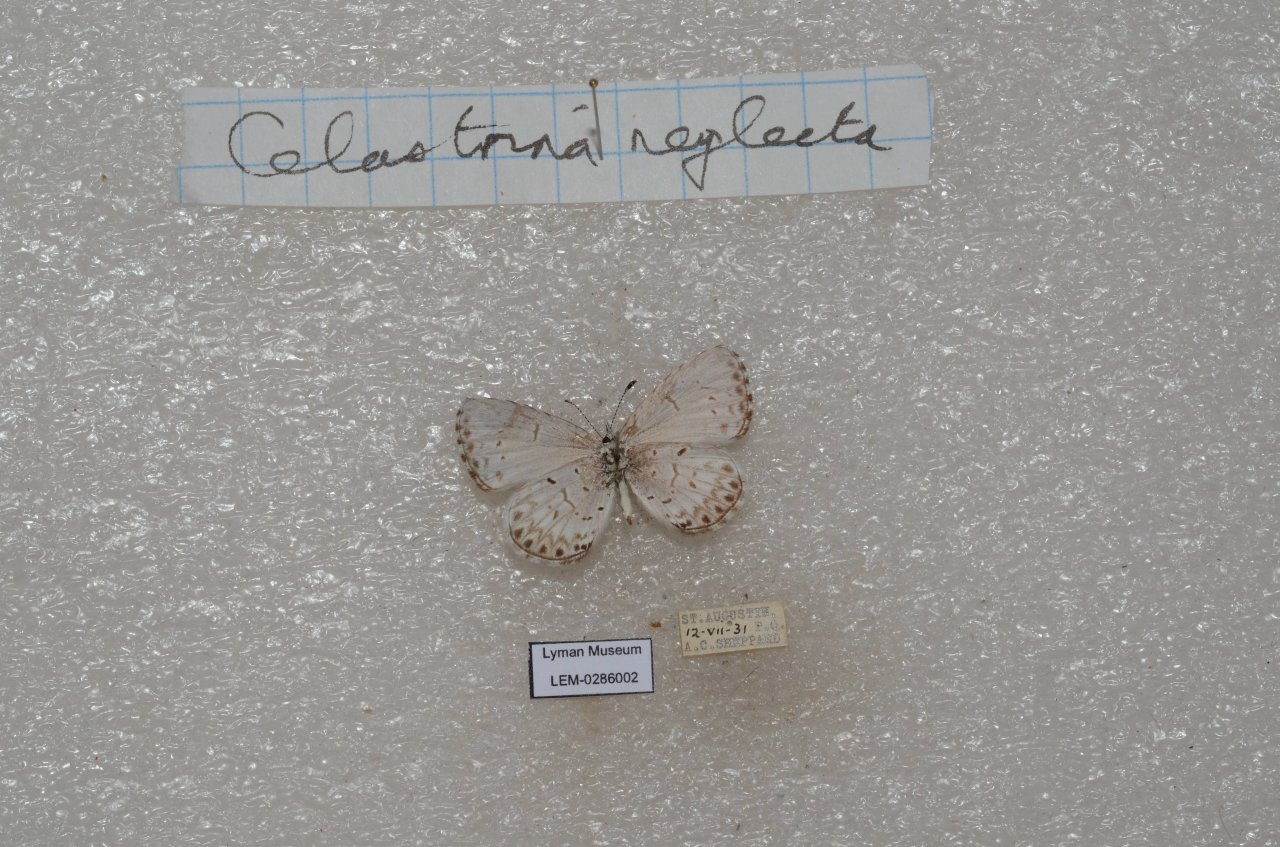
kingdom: Animalia
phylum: Arthropoda
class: Insecta
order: Lepidoptera
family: Lycaenidae
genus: Celastrina
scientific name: Celastrina lucia
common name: Northern Spring Azure
